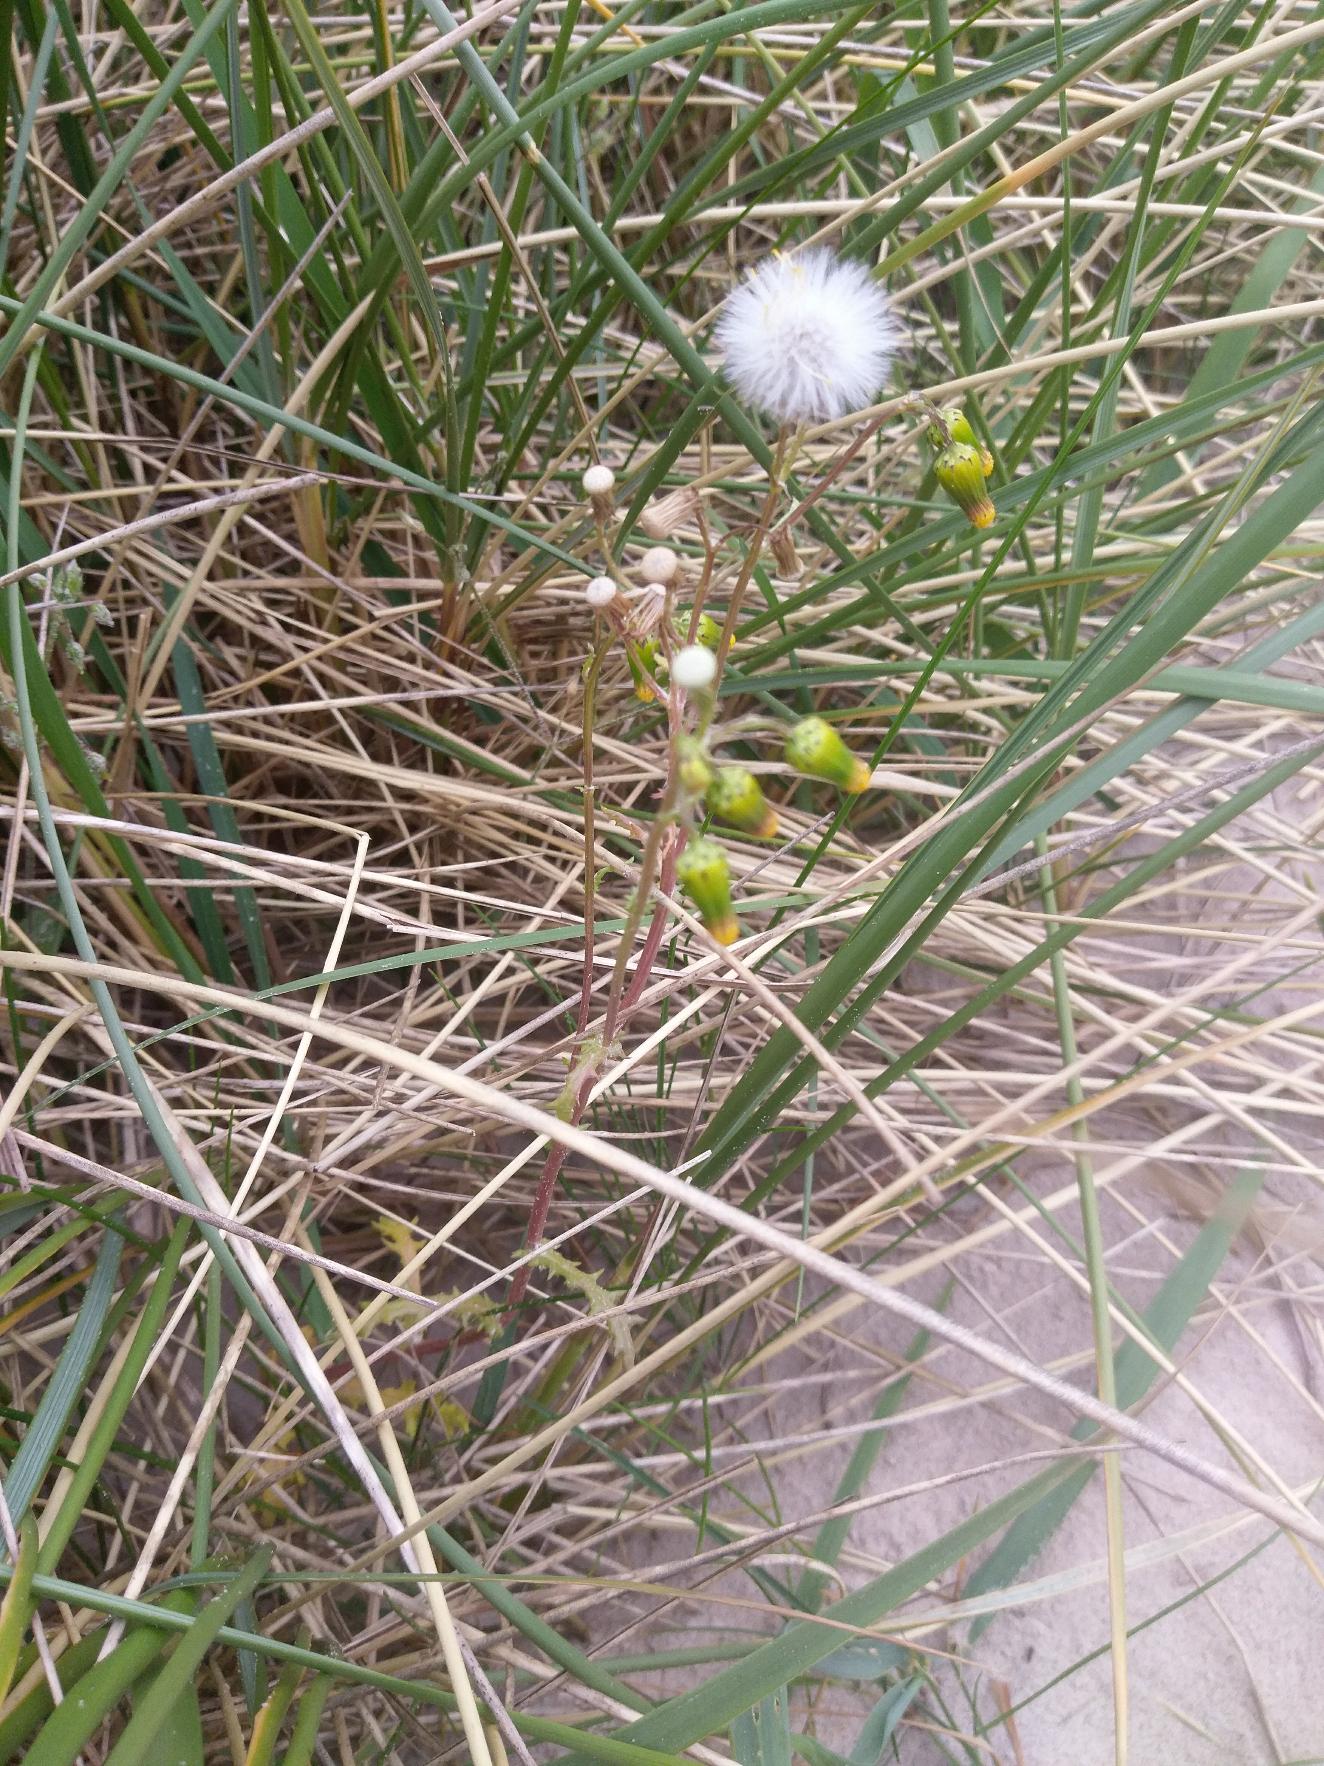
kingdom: Plantae
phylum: Tracheophyta
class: Magnoliopsida
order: Asterales
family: Asteraceae
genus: Senecio
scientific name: Senecio vulgaris
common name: Almindelig brandbæger
